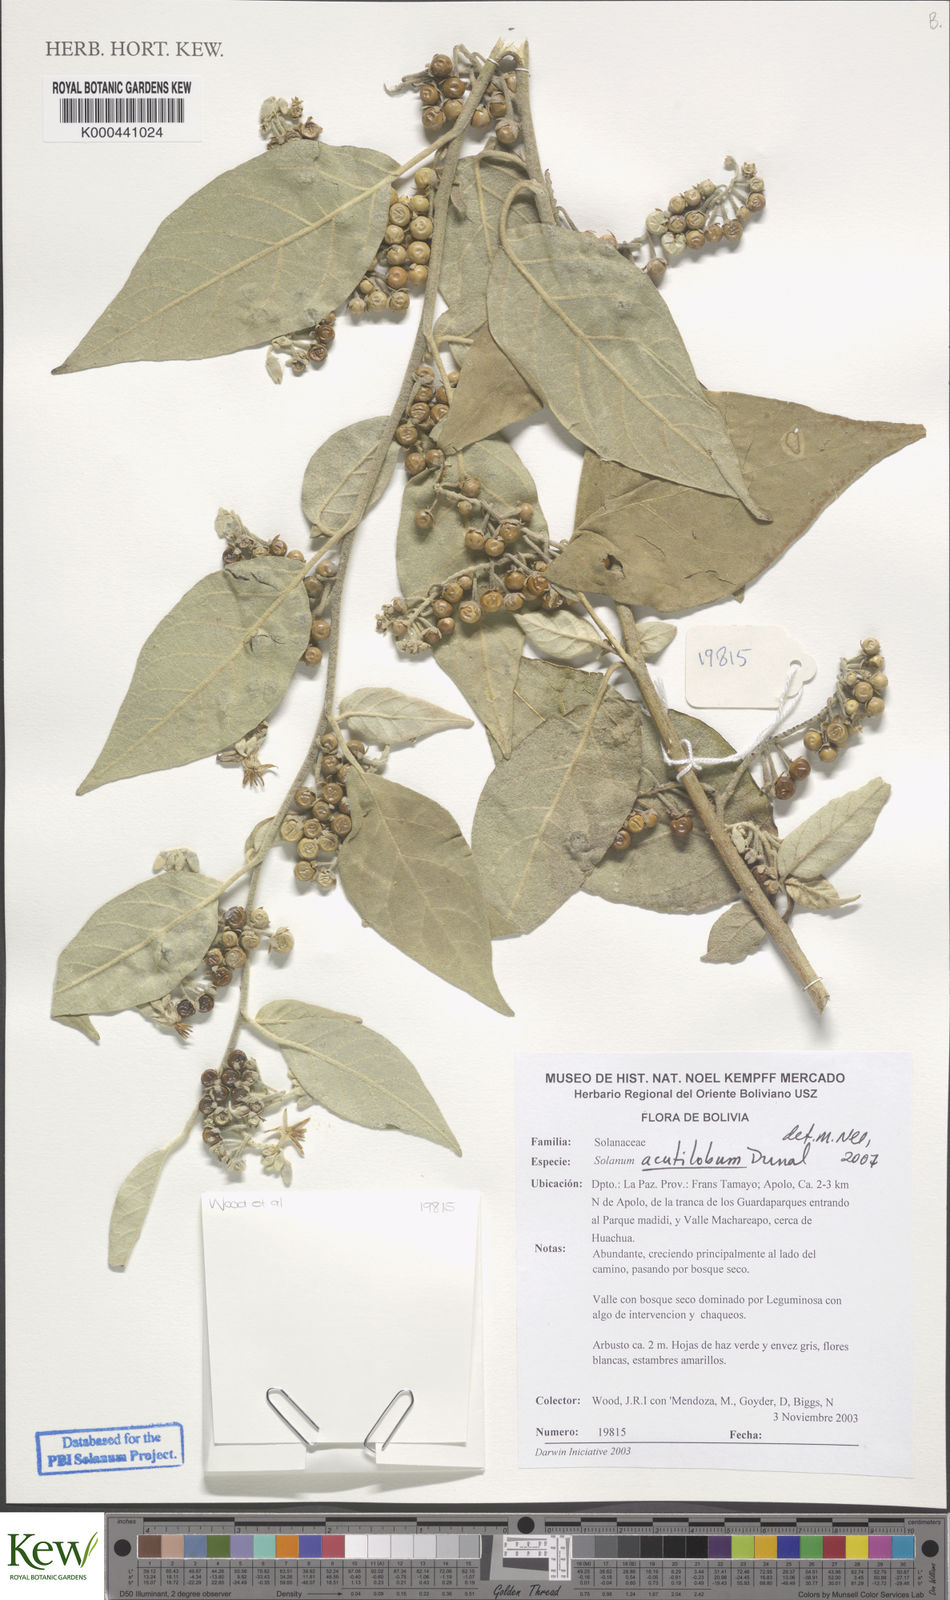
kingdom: Plantae
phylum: Tracheophyta
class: Magnoliopsida
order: Solanales
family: Solanaceae
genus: Solanum
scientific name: Solanum acutilobum
